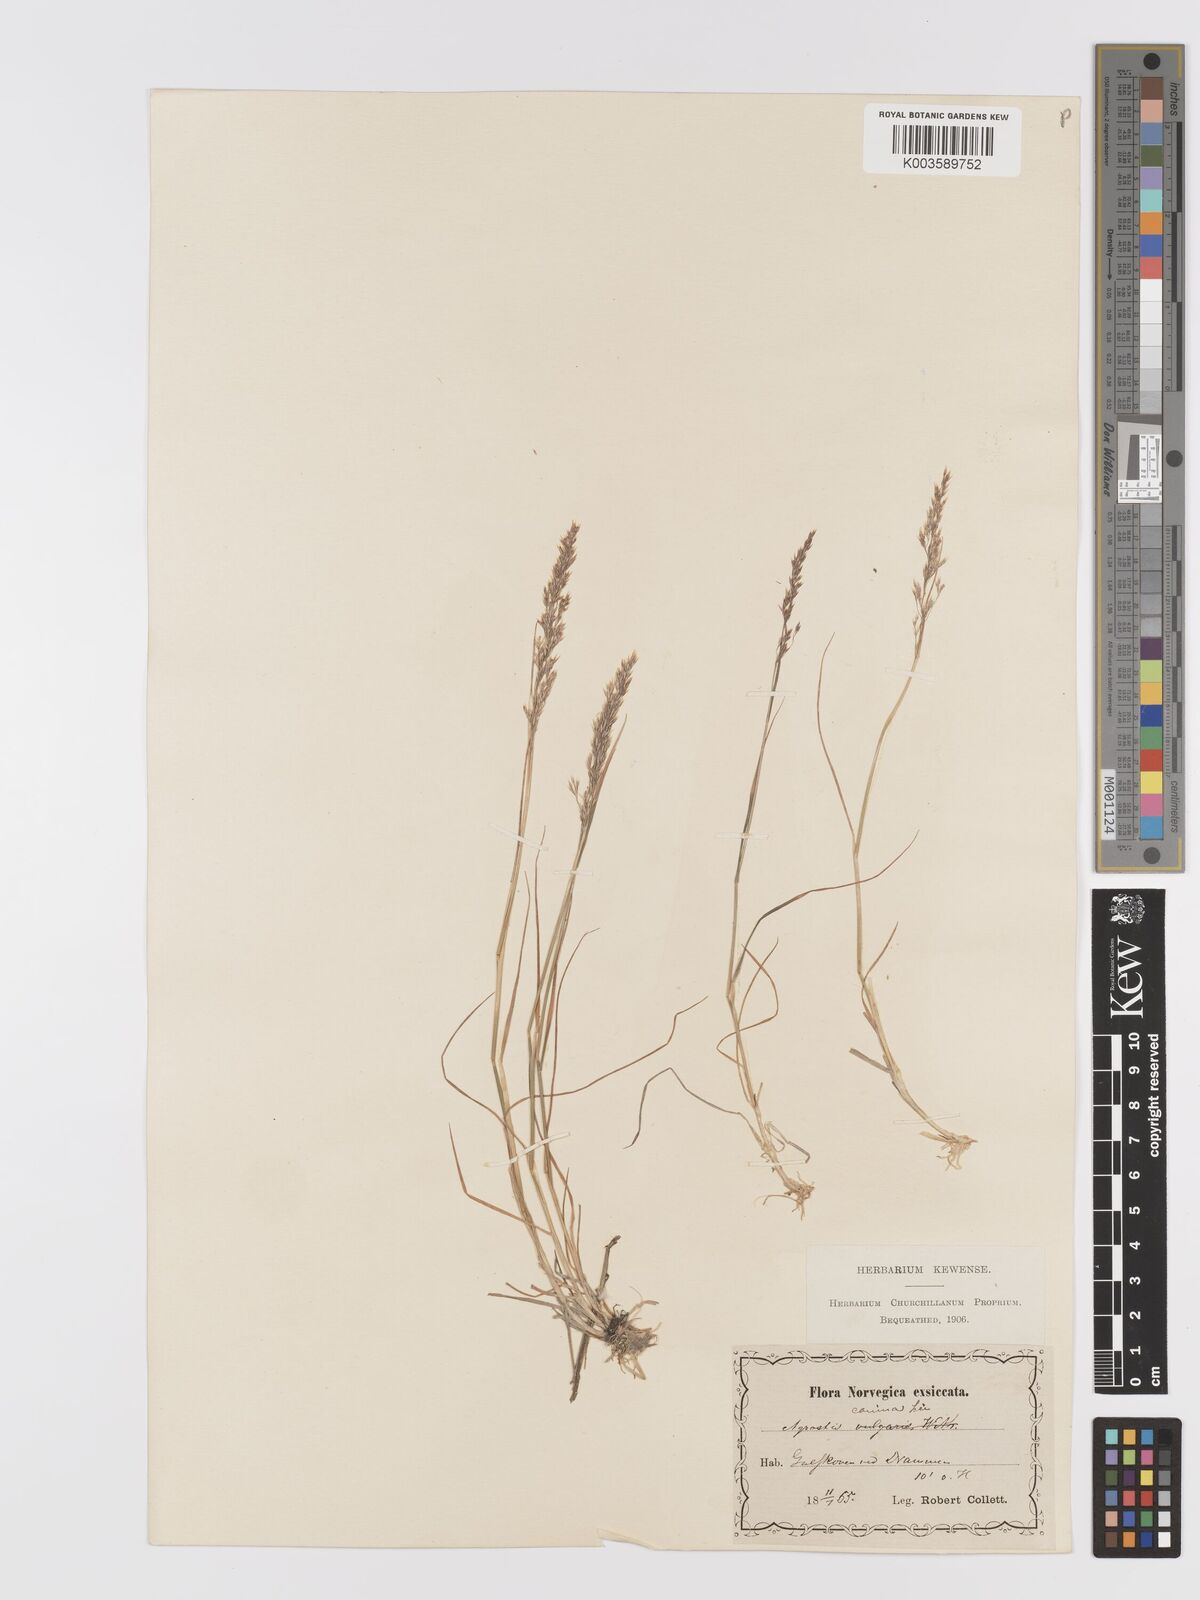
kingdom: Plantae
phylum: Tracheophyta
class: Liliopsida
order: Poales
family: Poaceae
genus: Agrostis
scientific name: Agrostis
